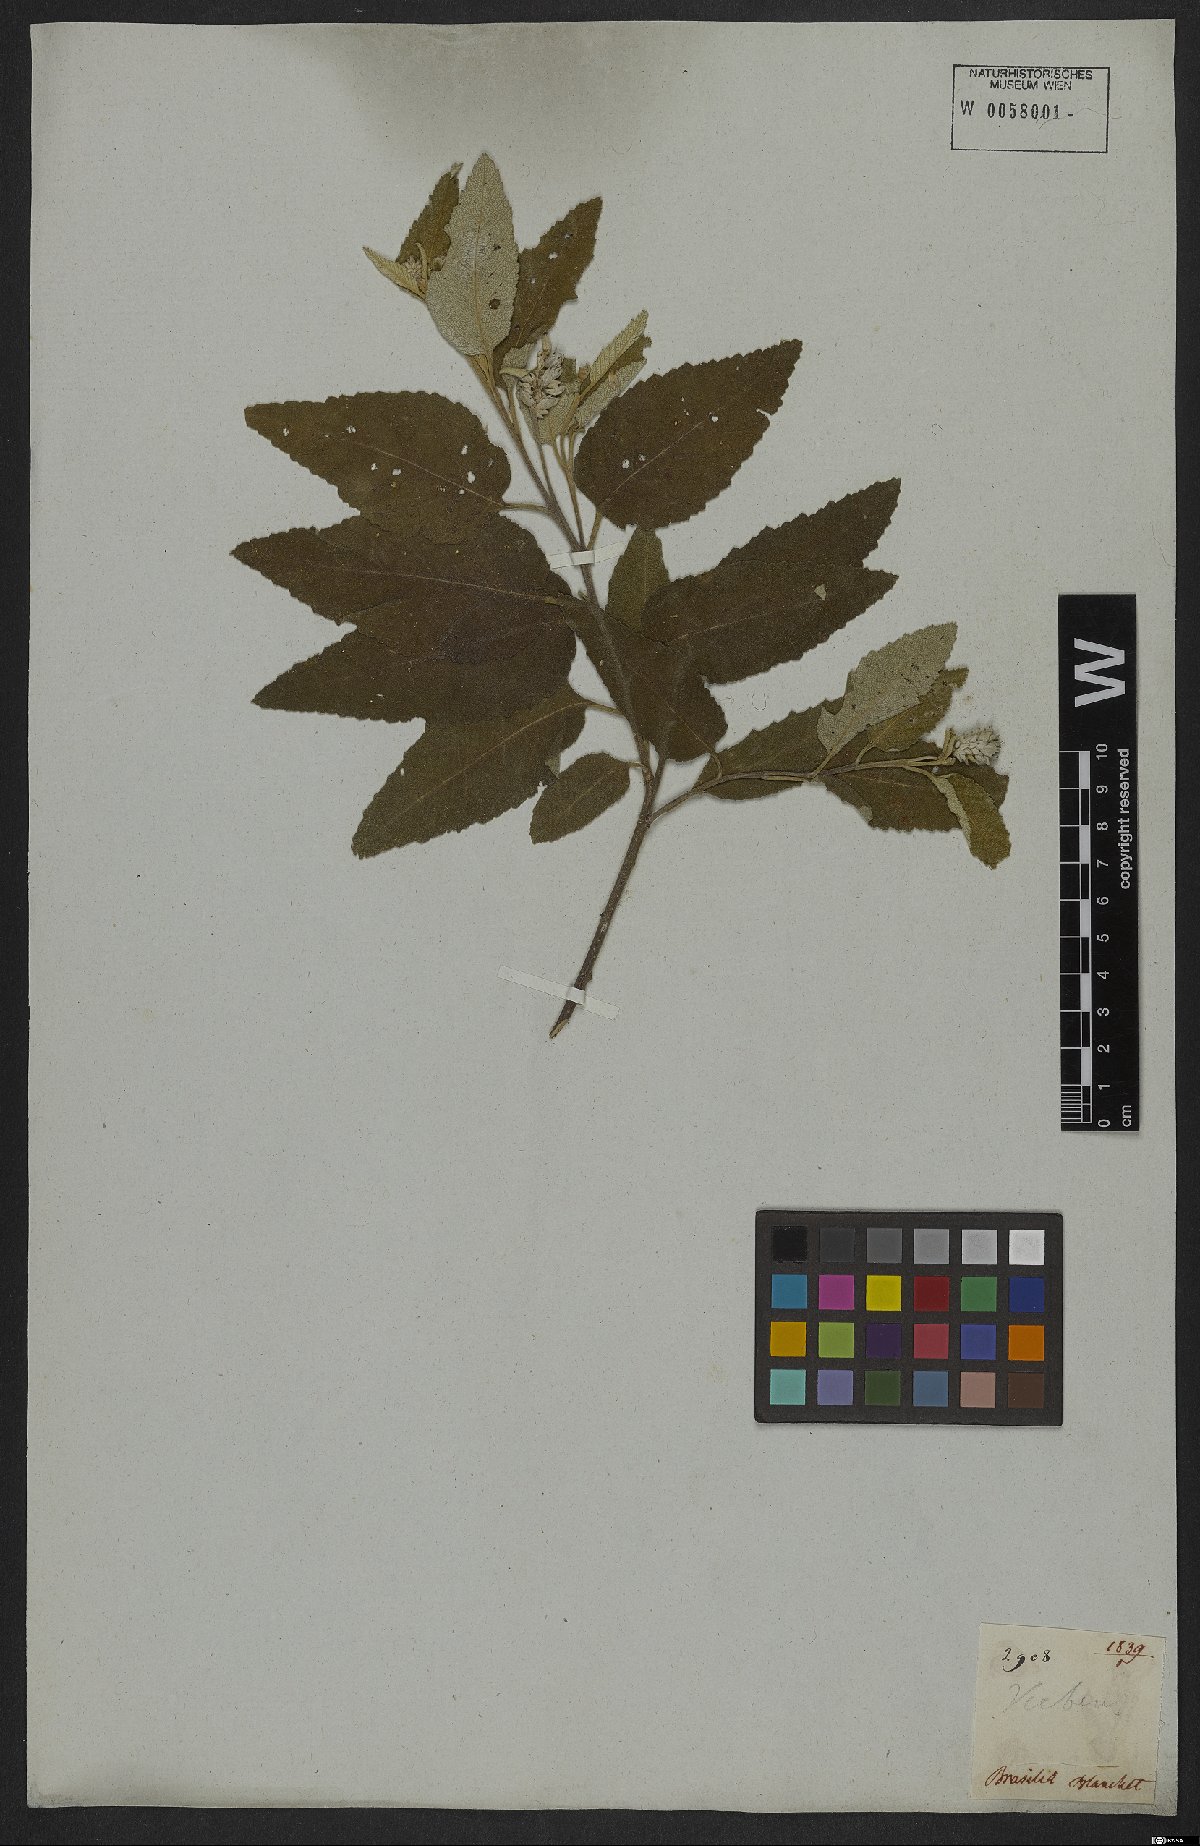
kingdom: Plantae
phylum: Tracheophyta
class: Magnoliopsida
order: Boraginales
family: Cordiaceae
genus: Varronia
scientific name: Varronia bullata
